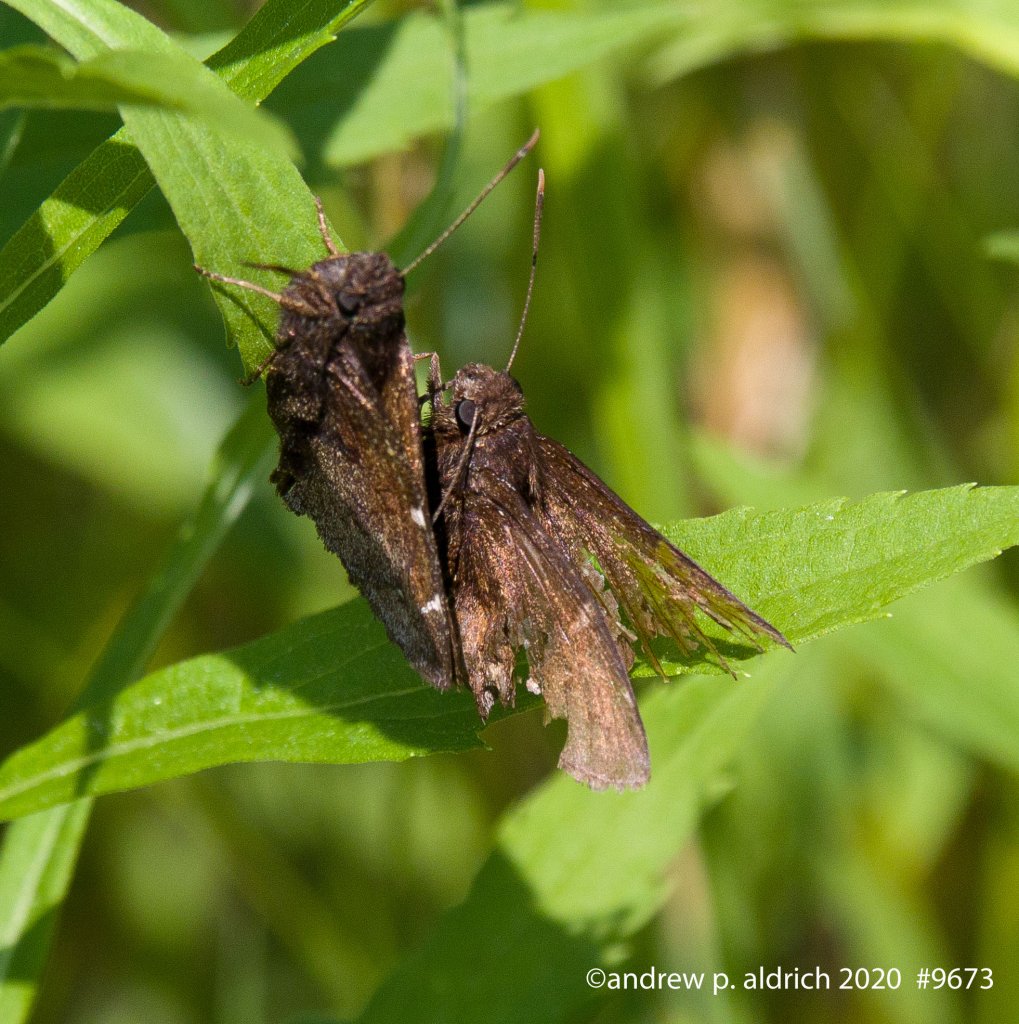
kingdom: Animalia
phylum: Arthropoda
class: Insecta
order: Lepidoptera
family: Hesperiidae
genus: Autochton
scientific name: Autochton
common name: Northern Cloudywing
